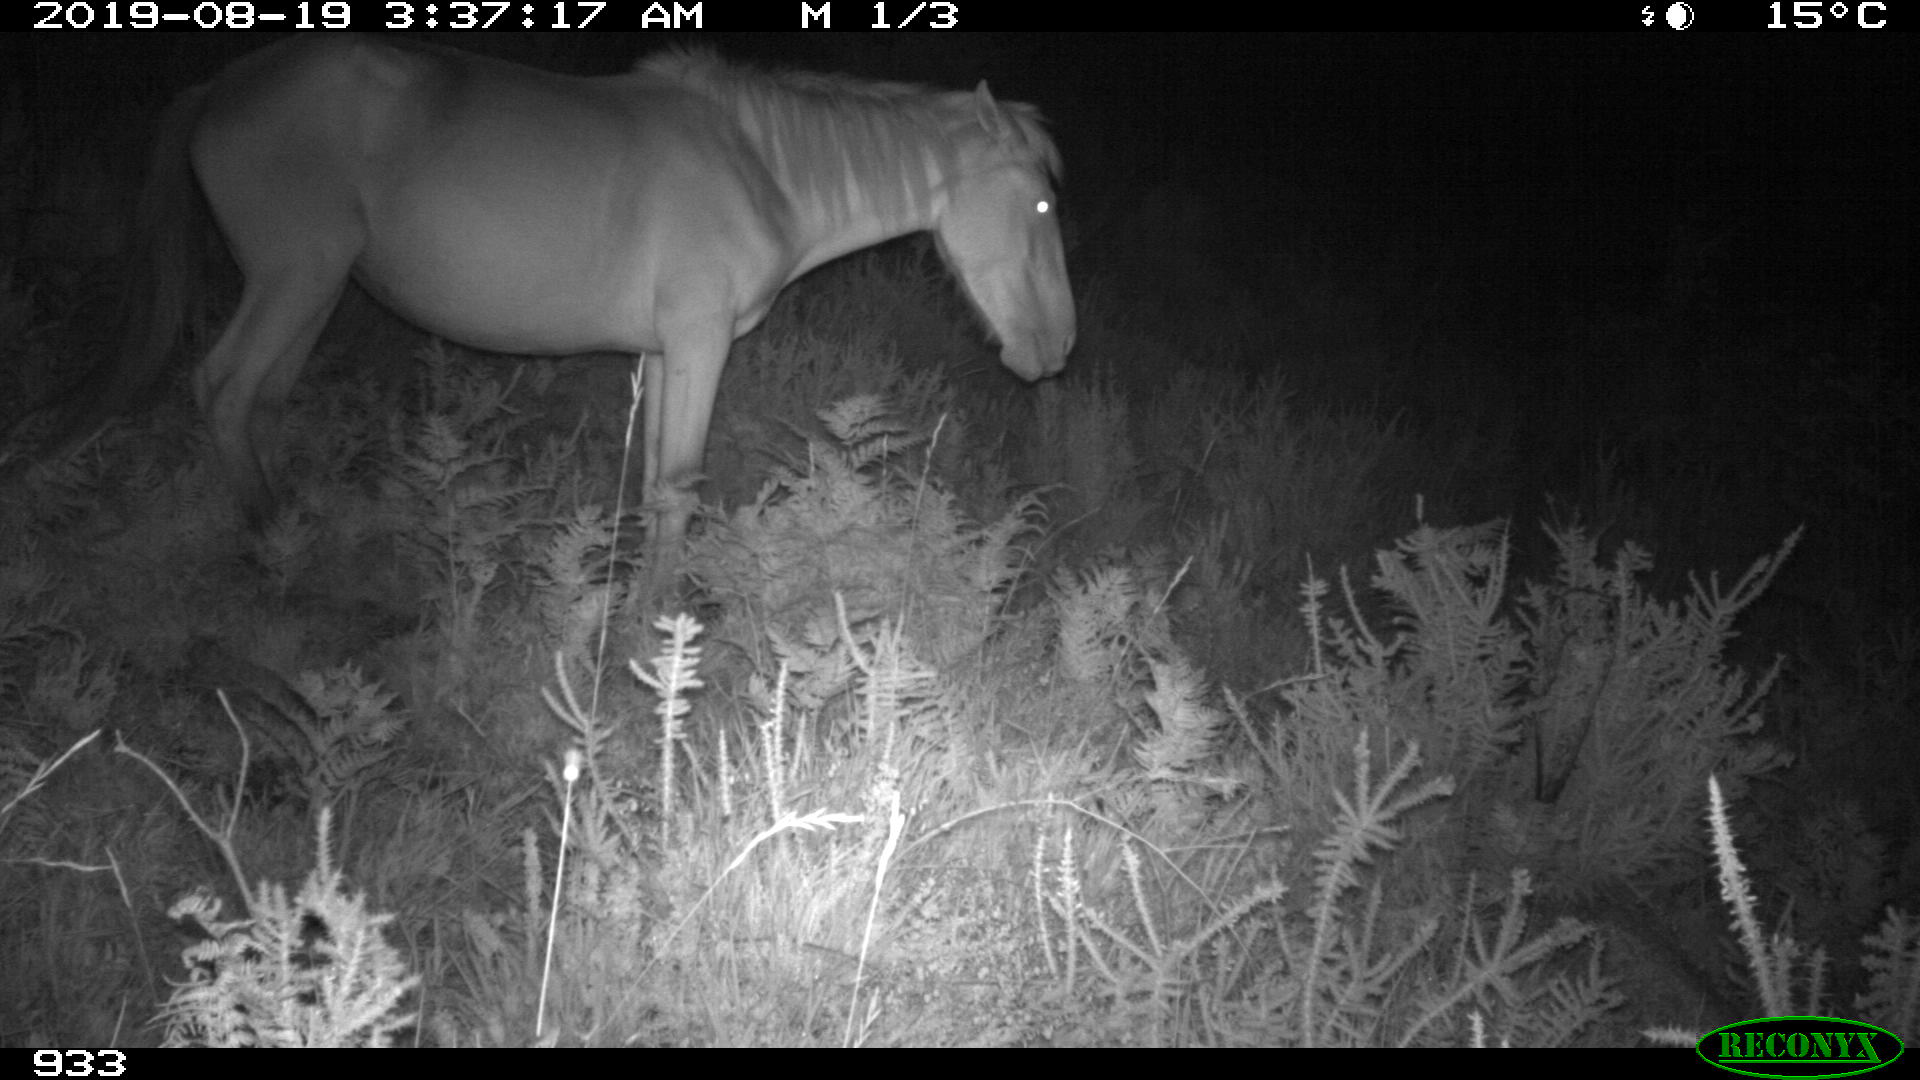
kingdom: Animalia
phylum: Chordata
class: Mammalia
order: Perissodactyla
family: Equidae
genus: Equus
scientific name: Equus caballus
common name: Horse
